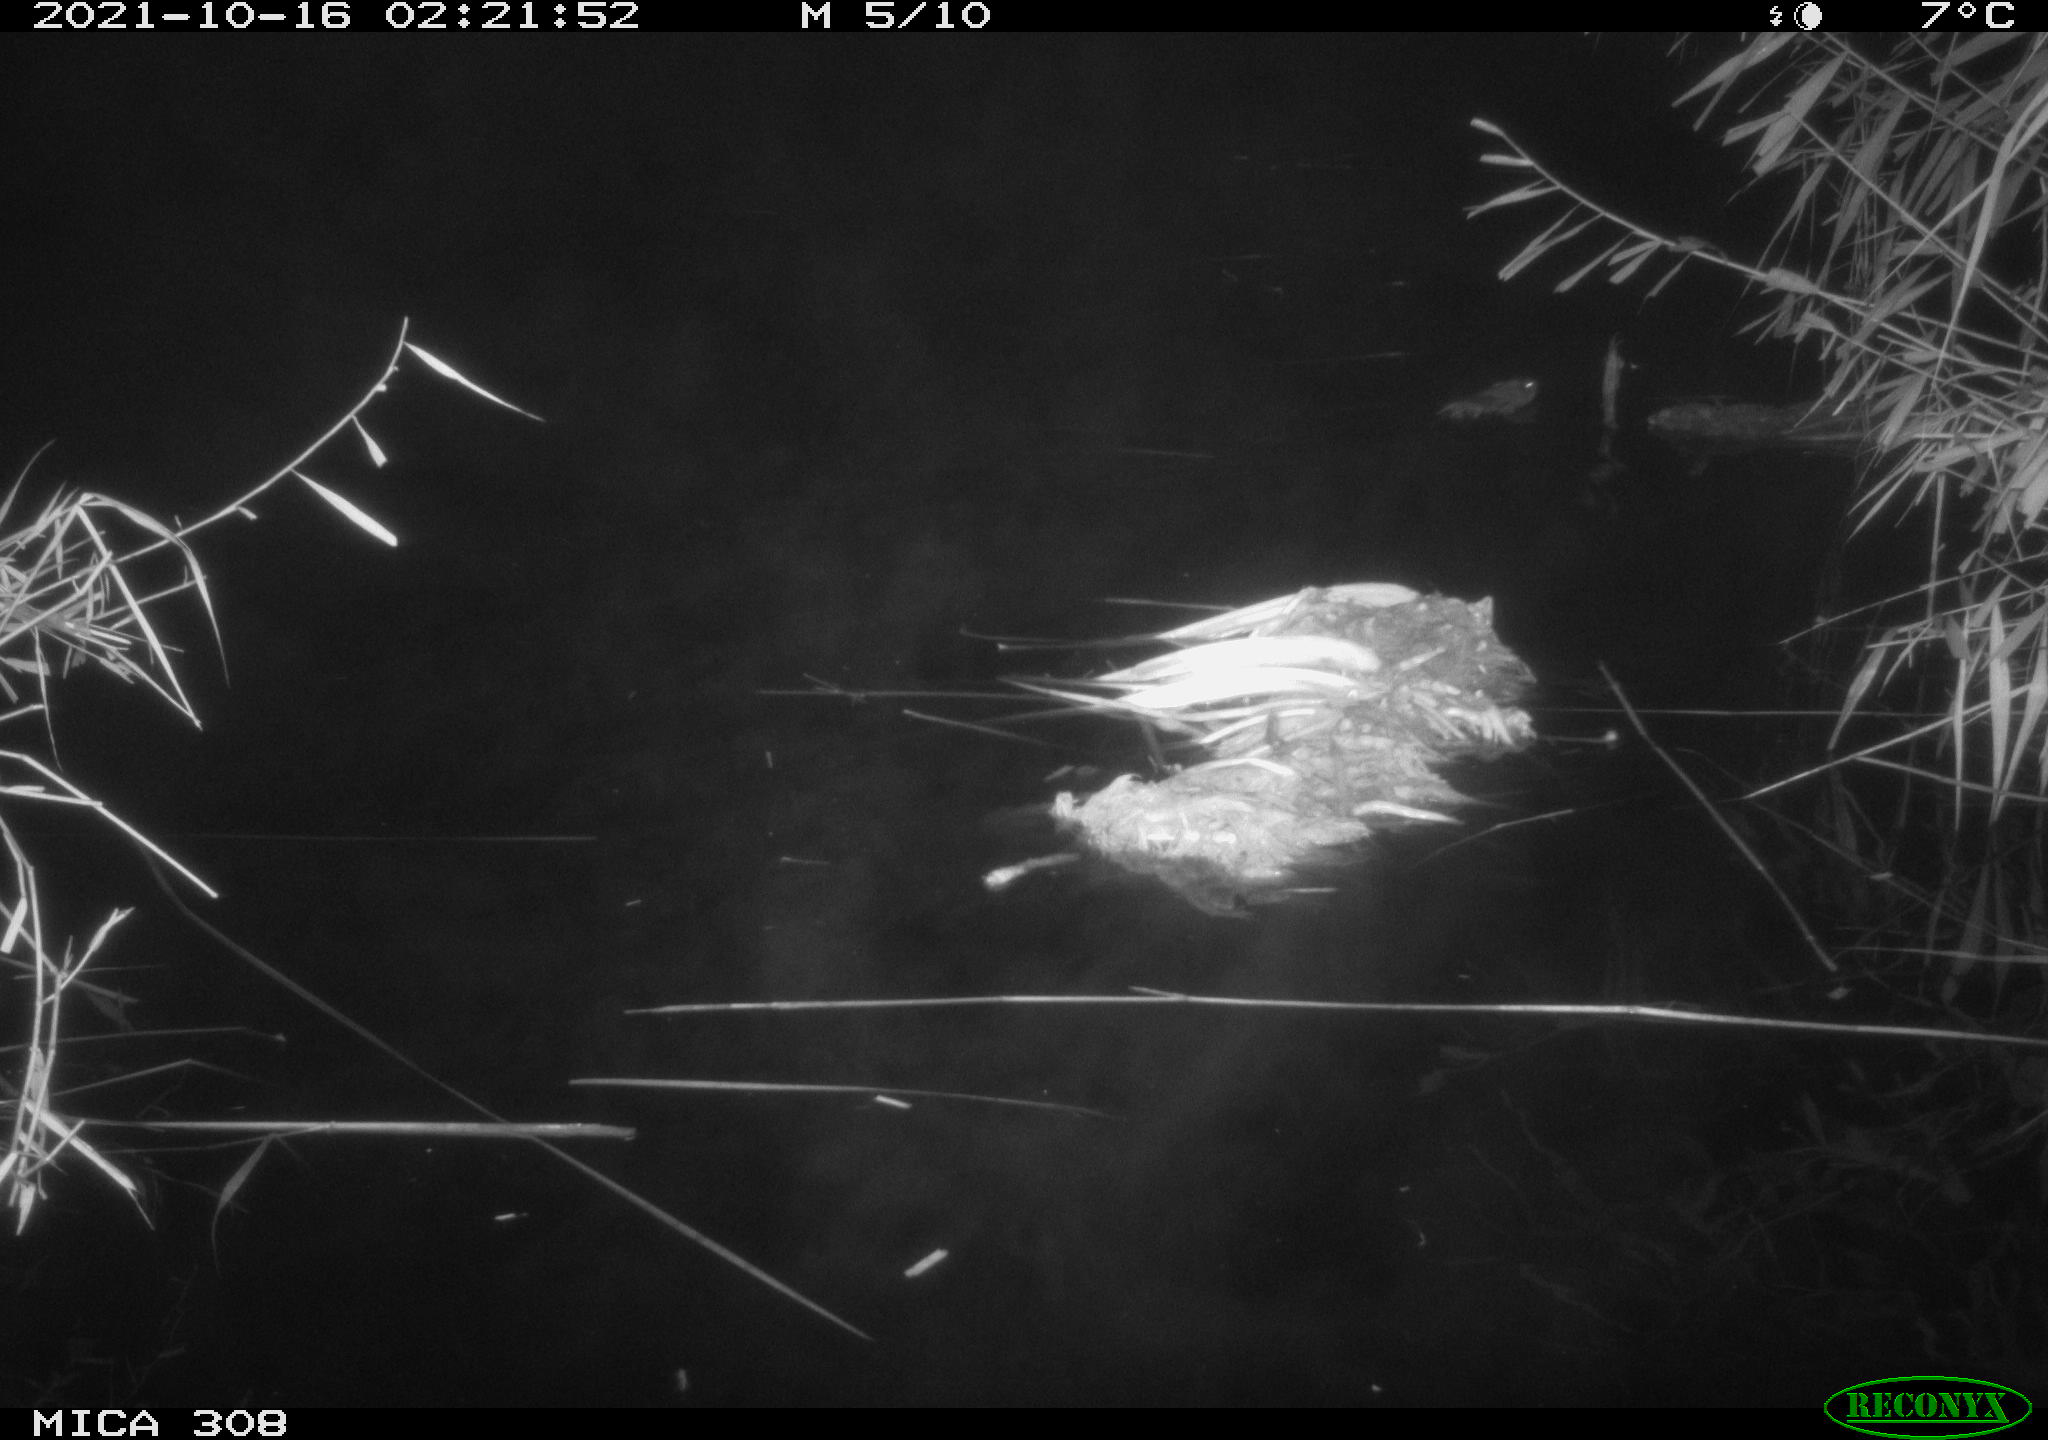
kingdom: Animalia
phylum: Chordata
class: Mammalia
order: Rodentia
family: Cricetidae
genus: Ondatra
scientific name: Ondatra zibethicus
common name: Muskrat
